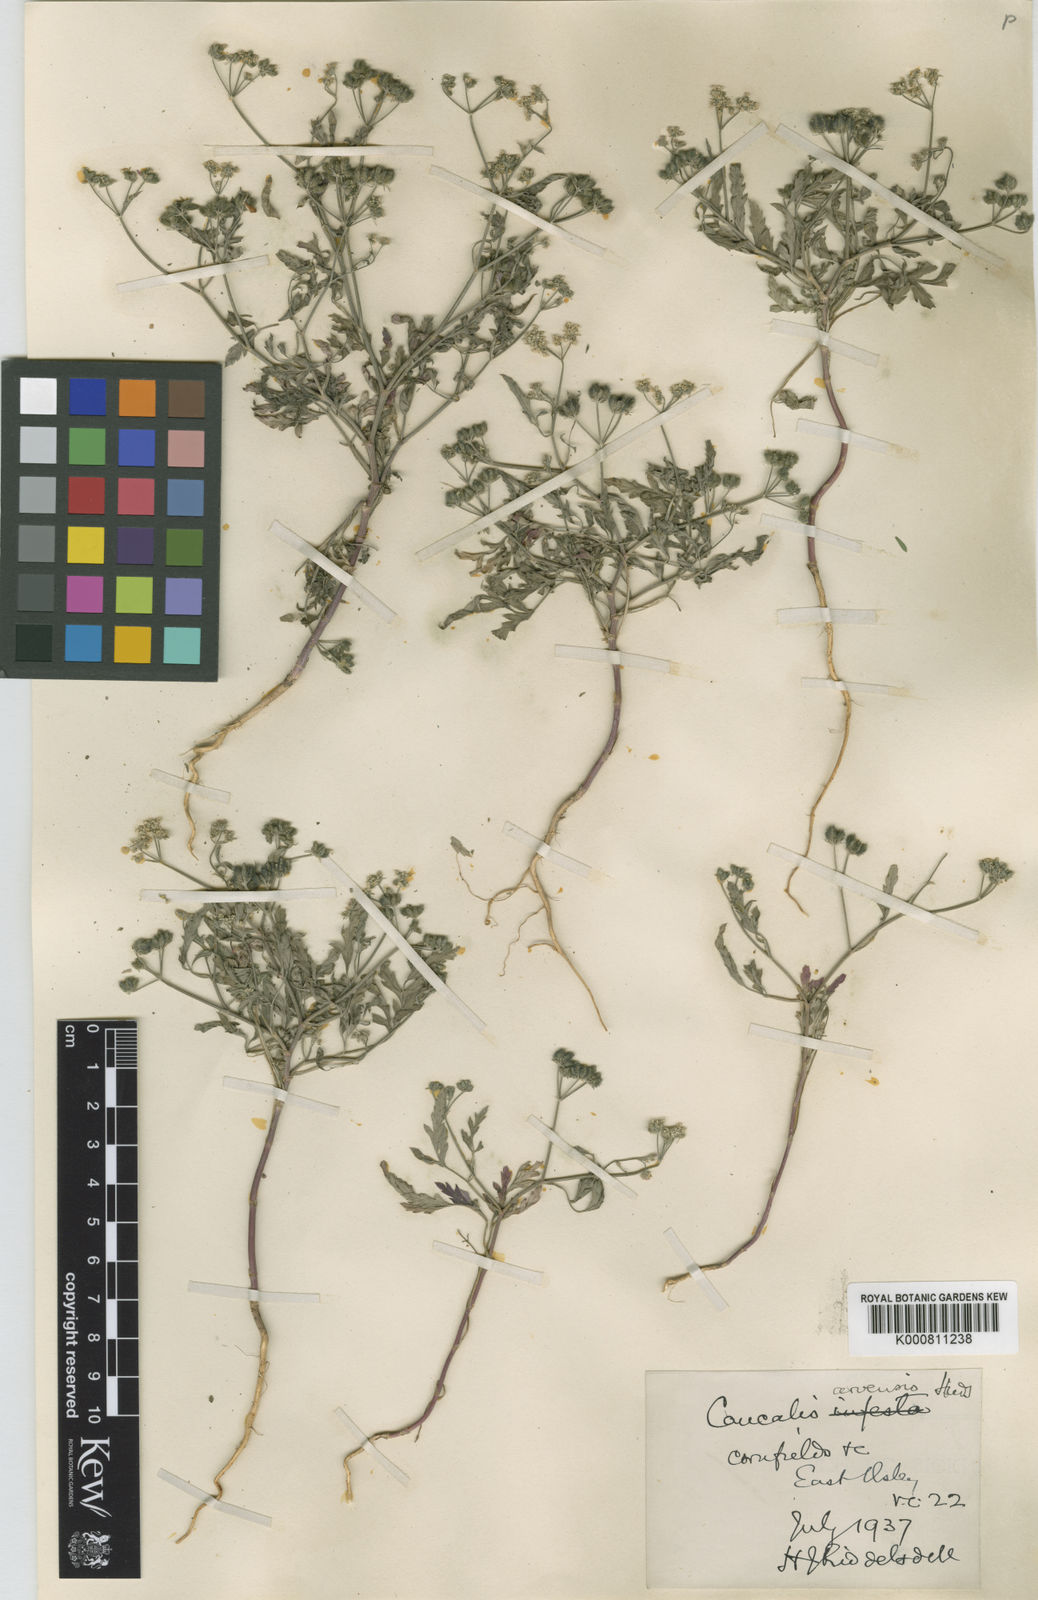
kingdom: Plantae
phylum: Tracheophyta
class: Magnoliopsida
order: Apiales
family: Apiaceae
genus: Torilis
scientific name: Torilis arvensis
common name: Spreading hedge-parsley
